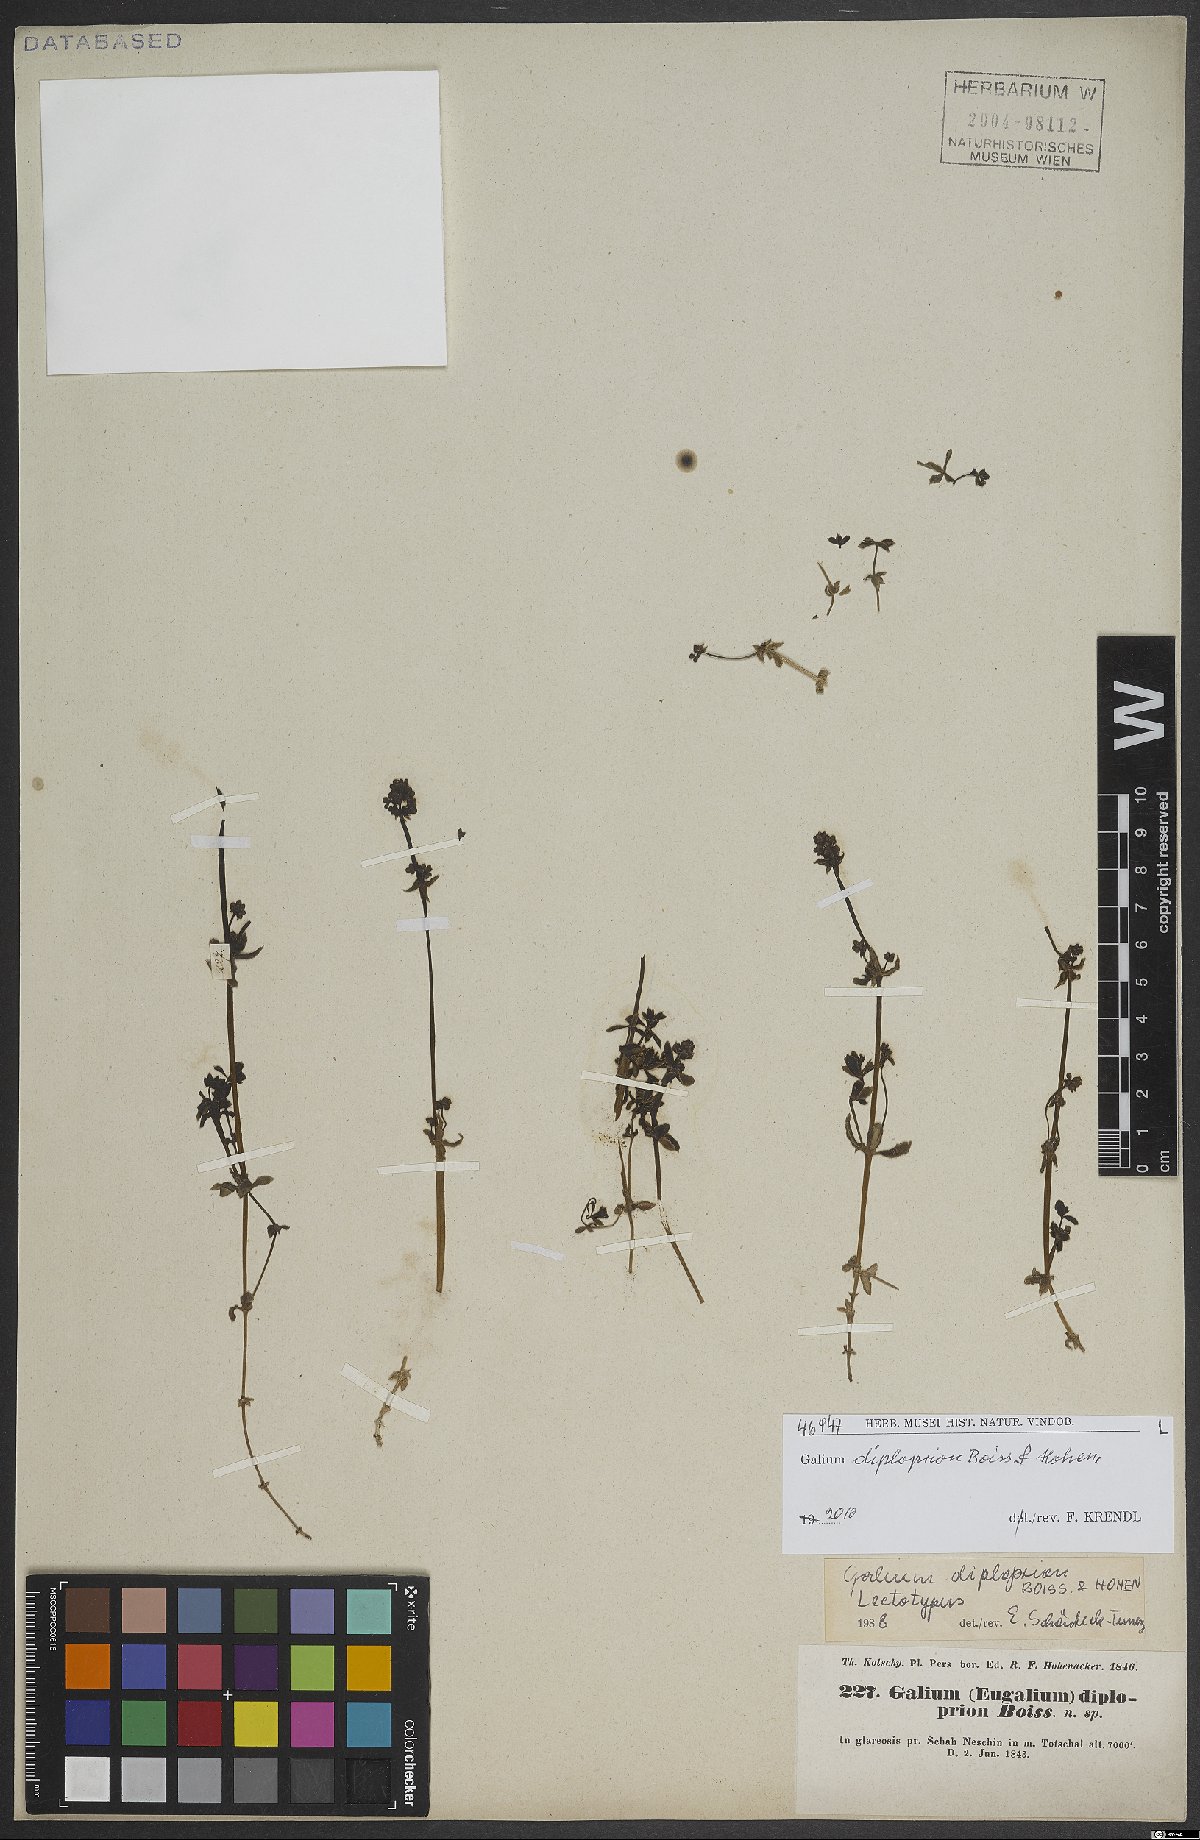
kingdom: Plantae
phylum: Tracheophyta
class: Magnoliopsida
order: Gentianales
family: Rubiaceae
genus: Galium
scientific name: Galium diploprion
